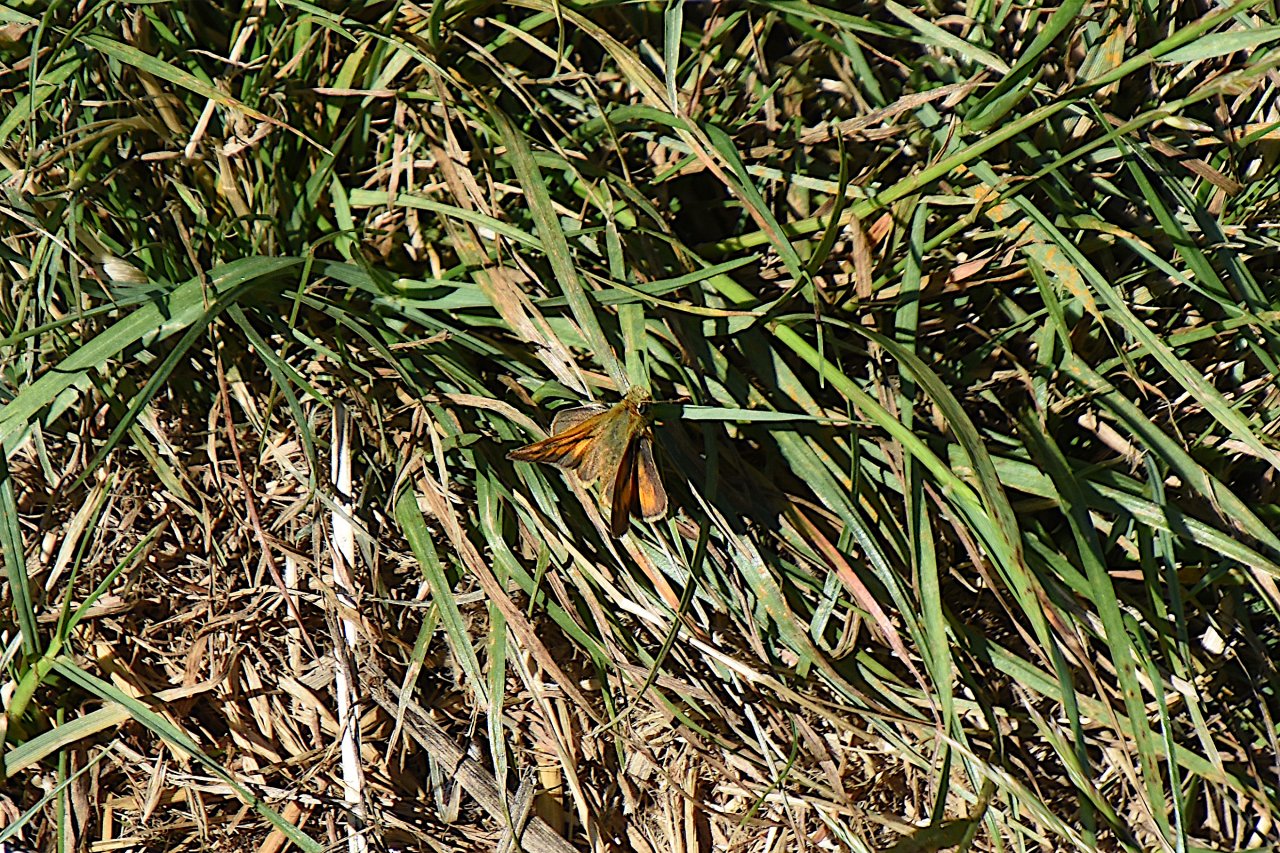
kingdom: Animalia
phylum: Arthropoda
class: Insecta
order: Lepidoptera
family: Hesperiidae
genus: Ochlodes
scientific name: Ochlodes sylvanoides
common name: Woodland Skipper
